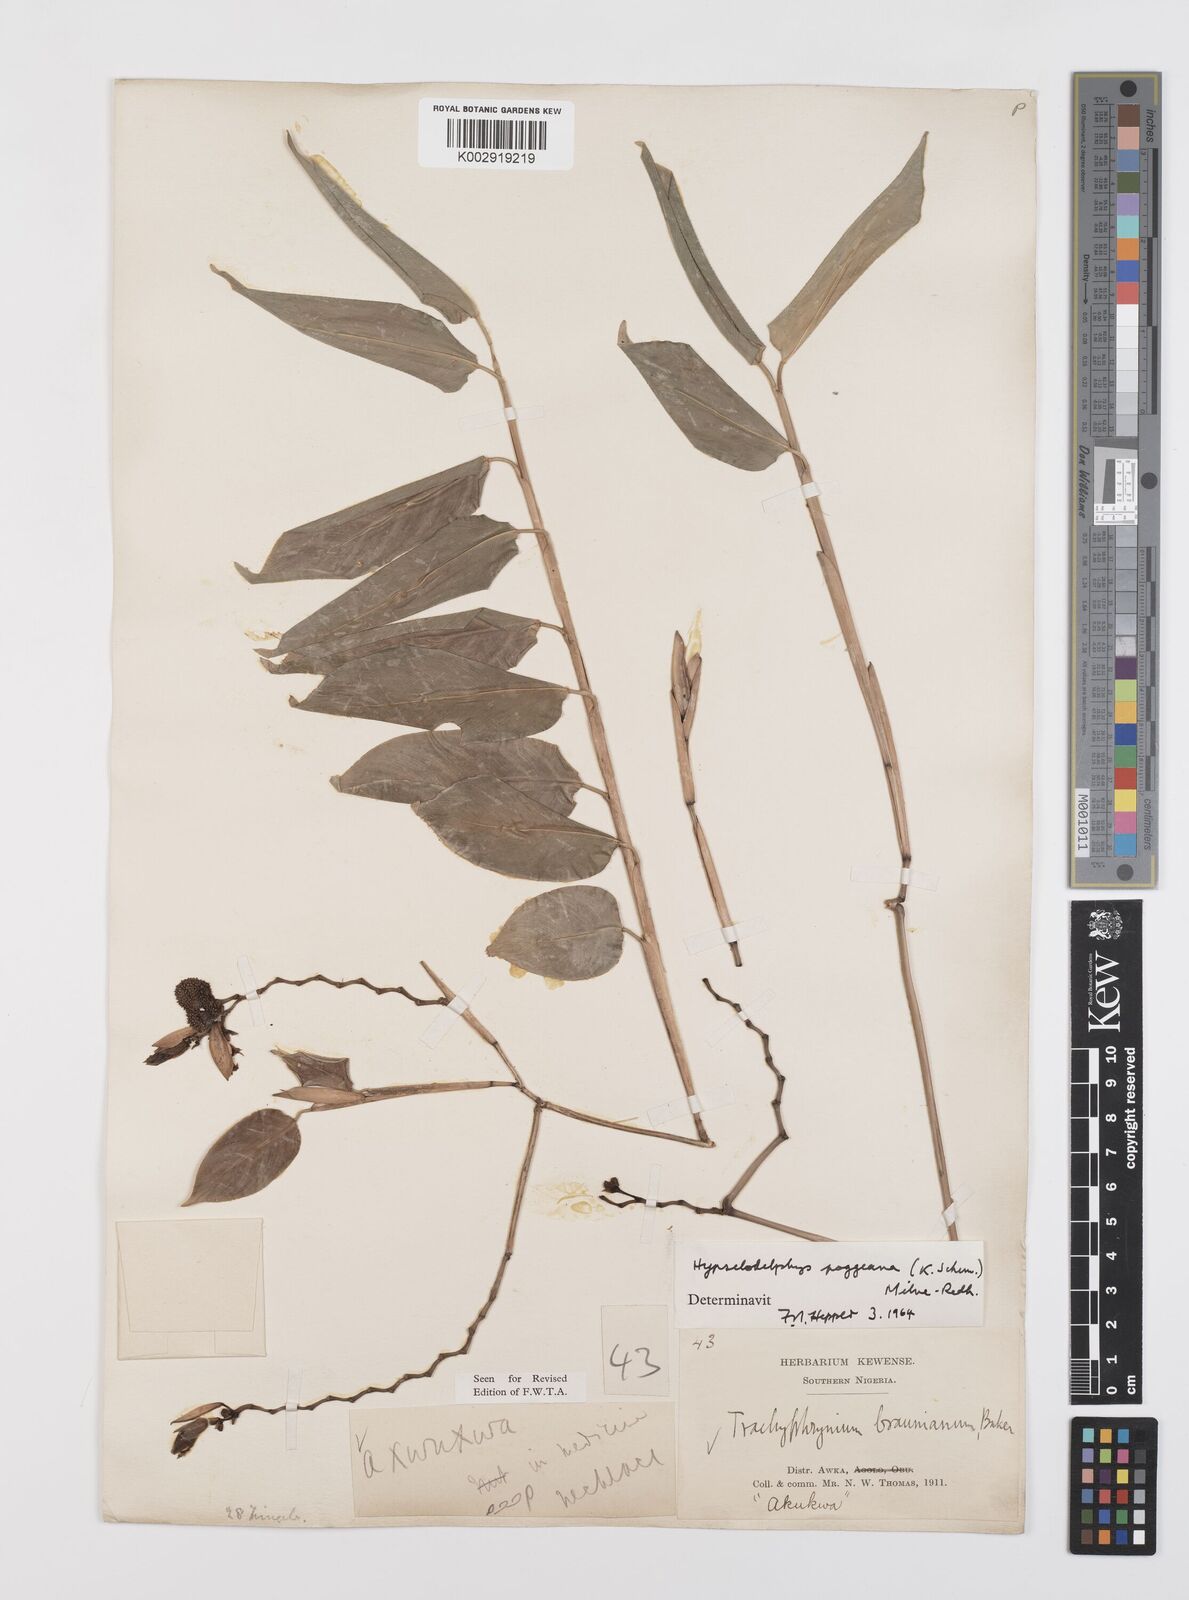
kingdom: Plantae
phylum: Tracheophyta
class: Liliopsida
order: Zingiberales
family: Marantaceae
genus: Hypselodelphys
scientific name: Hypselodelphys poggeana
